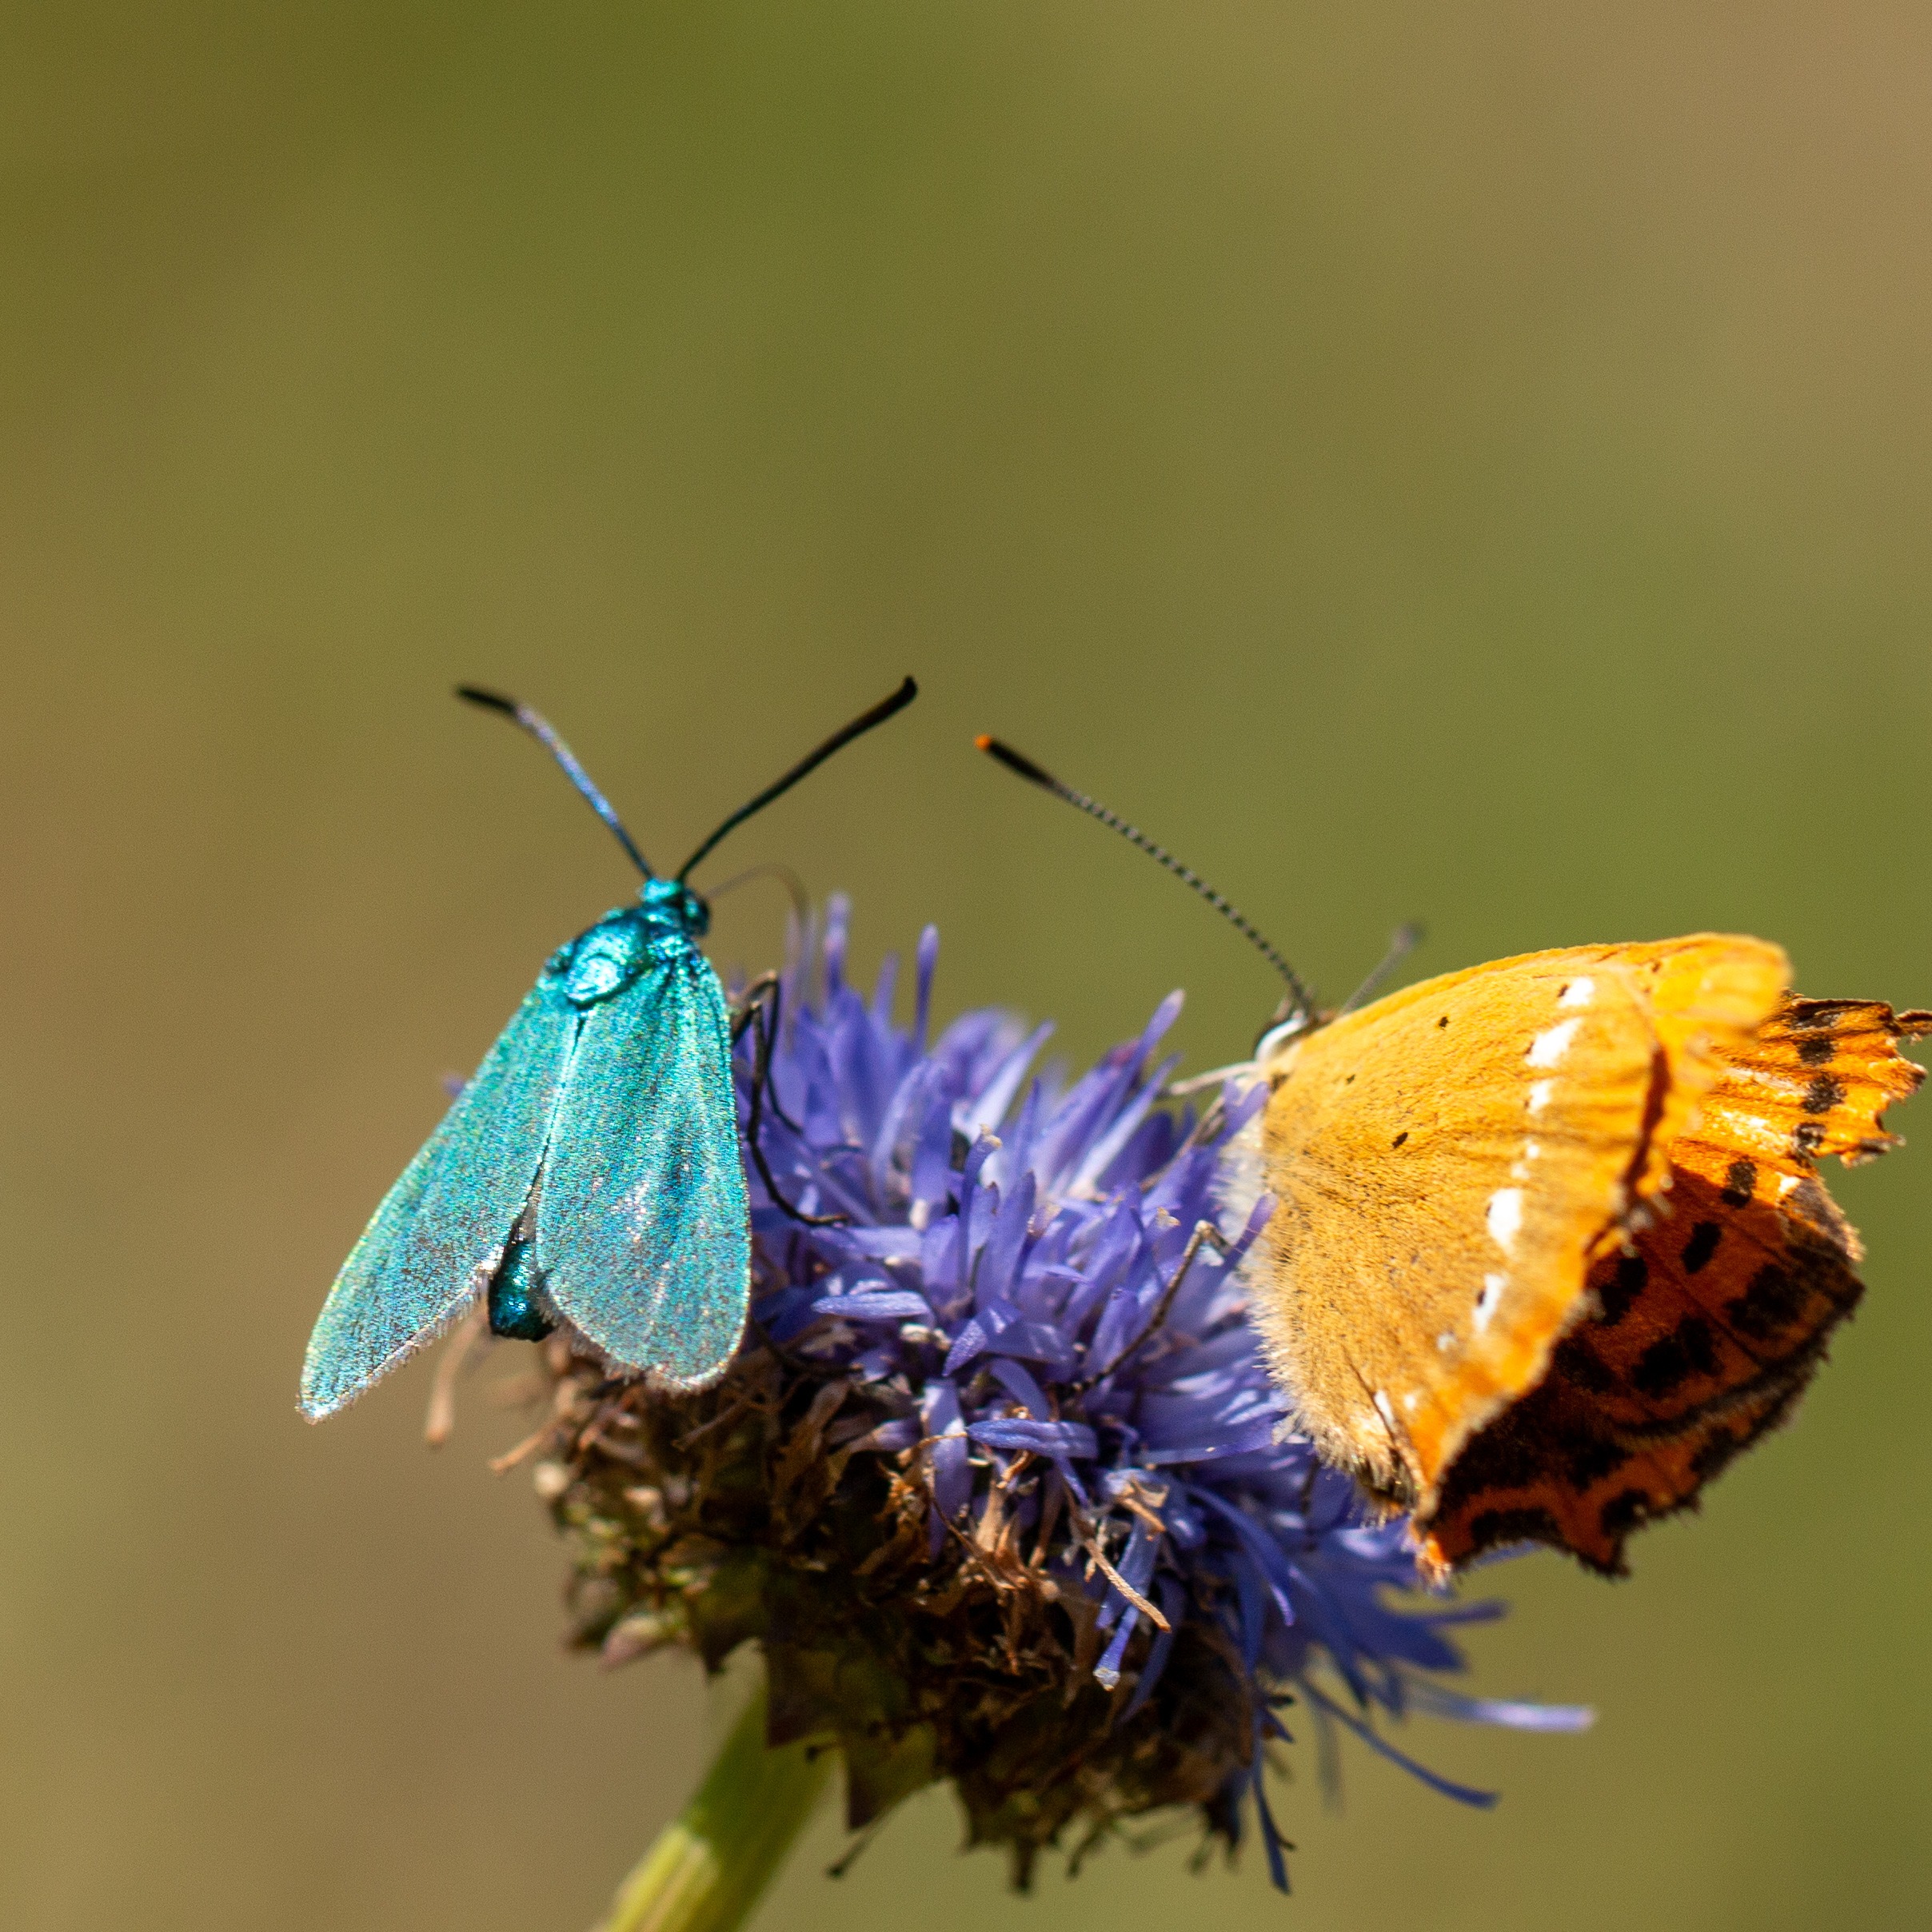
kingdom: Animalia
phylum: Arthropoda
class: Insecta
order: Lepidoptera
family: Zygaenidae
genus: Adscita
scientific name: Adscita statices
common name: Metalvinge
